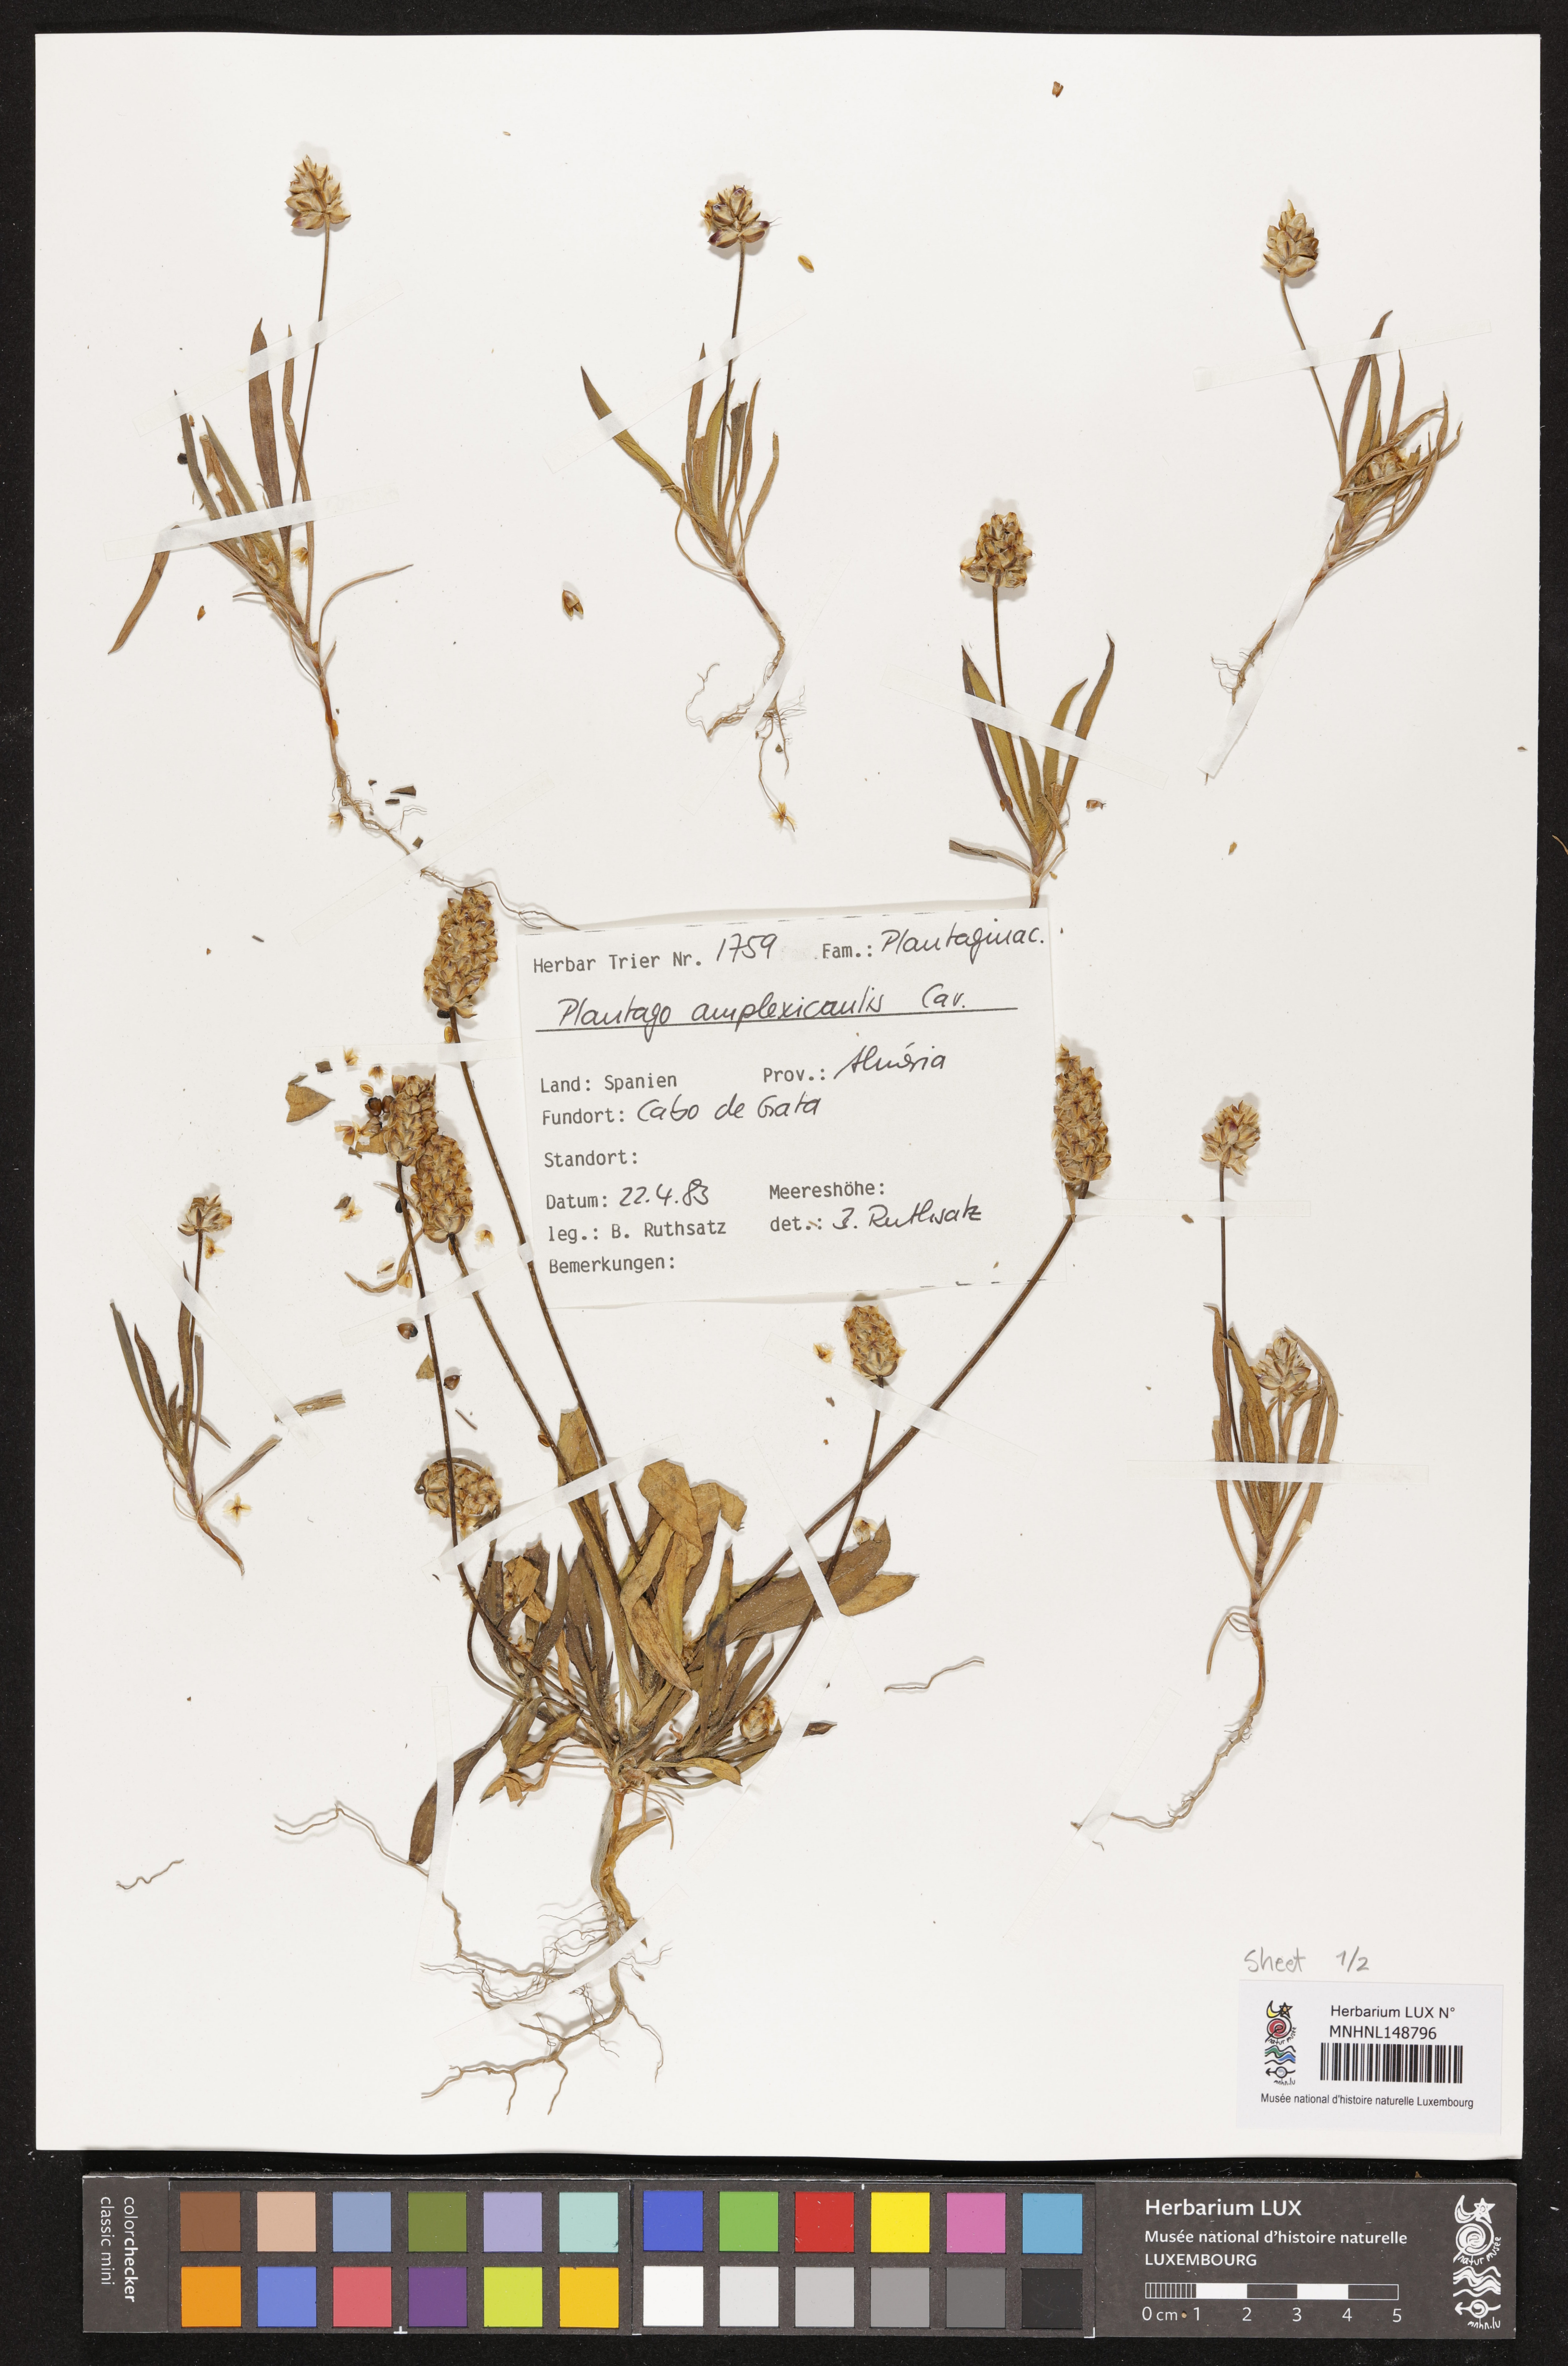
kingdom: Plantae
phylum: Tracheophyta
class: Magnoliopsida
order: Lamiales
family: Plantaginaceae
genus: Plantago
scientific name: Plantago amplexicaulis
